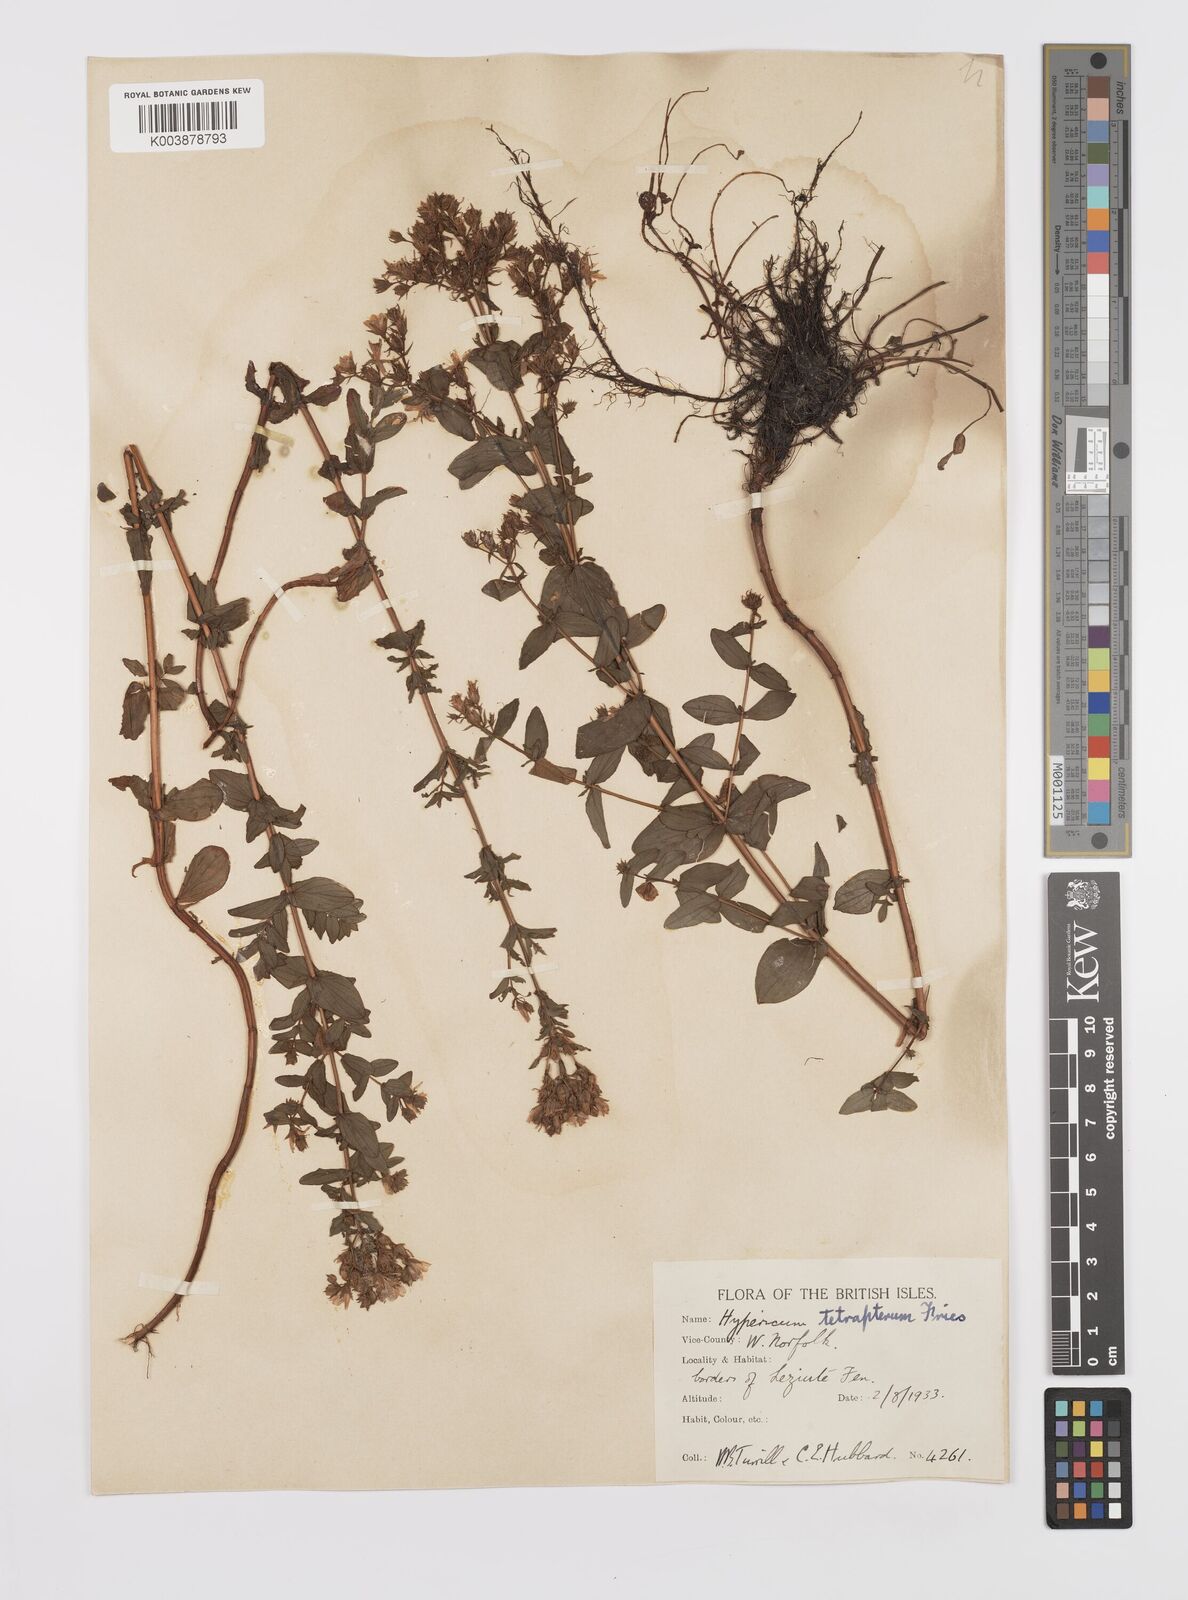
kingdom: Plantae
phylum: Tracheophyta
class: Magnoliopsida
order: Malpighiales
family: Hypericaceae
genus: Hypericum
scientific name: Hypericum tetrapterum
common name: Square-stalked st. john's-wort
